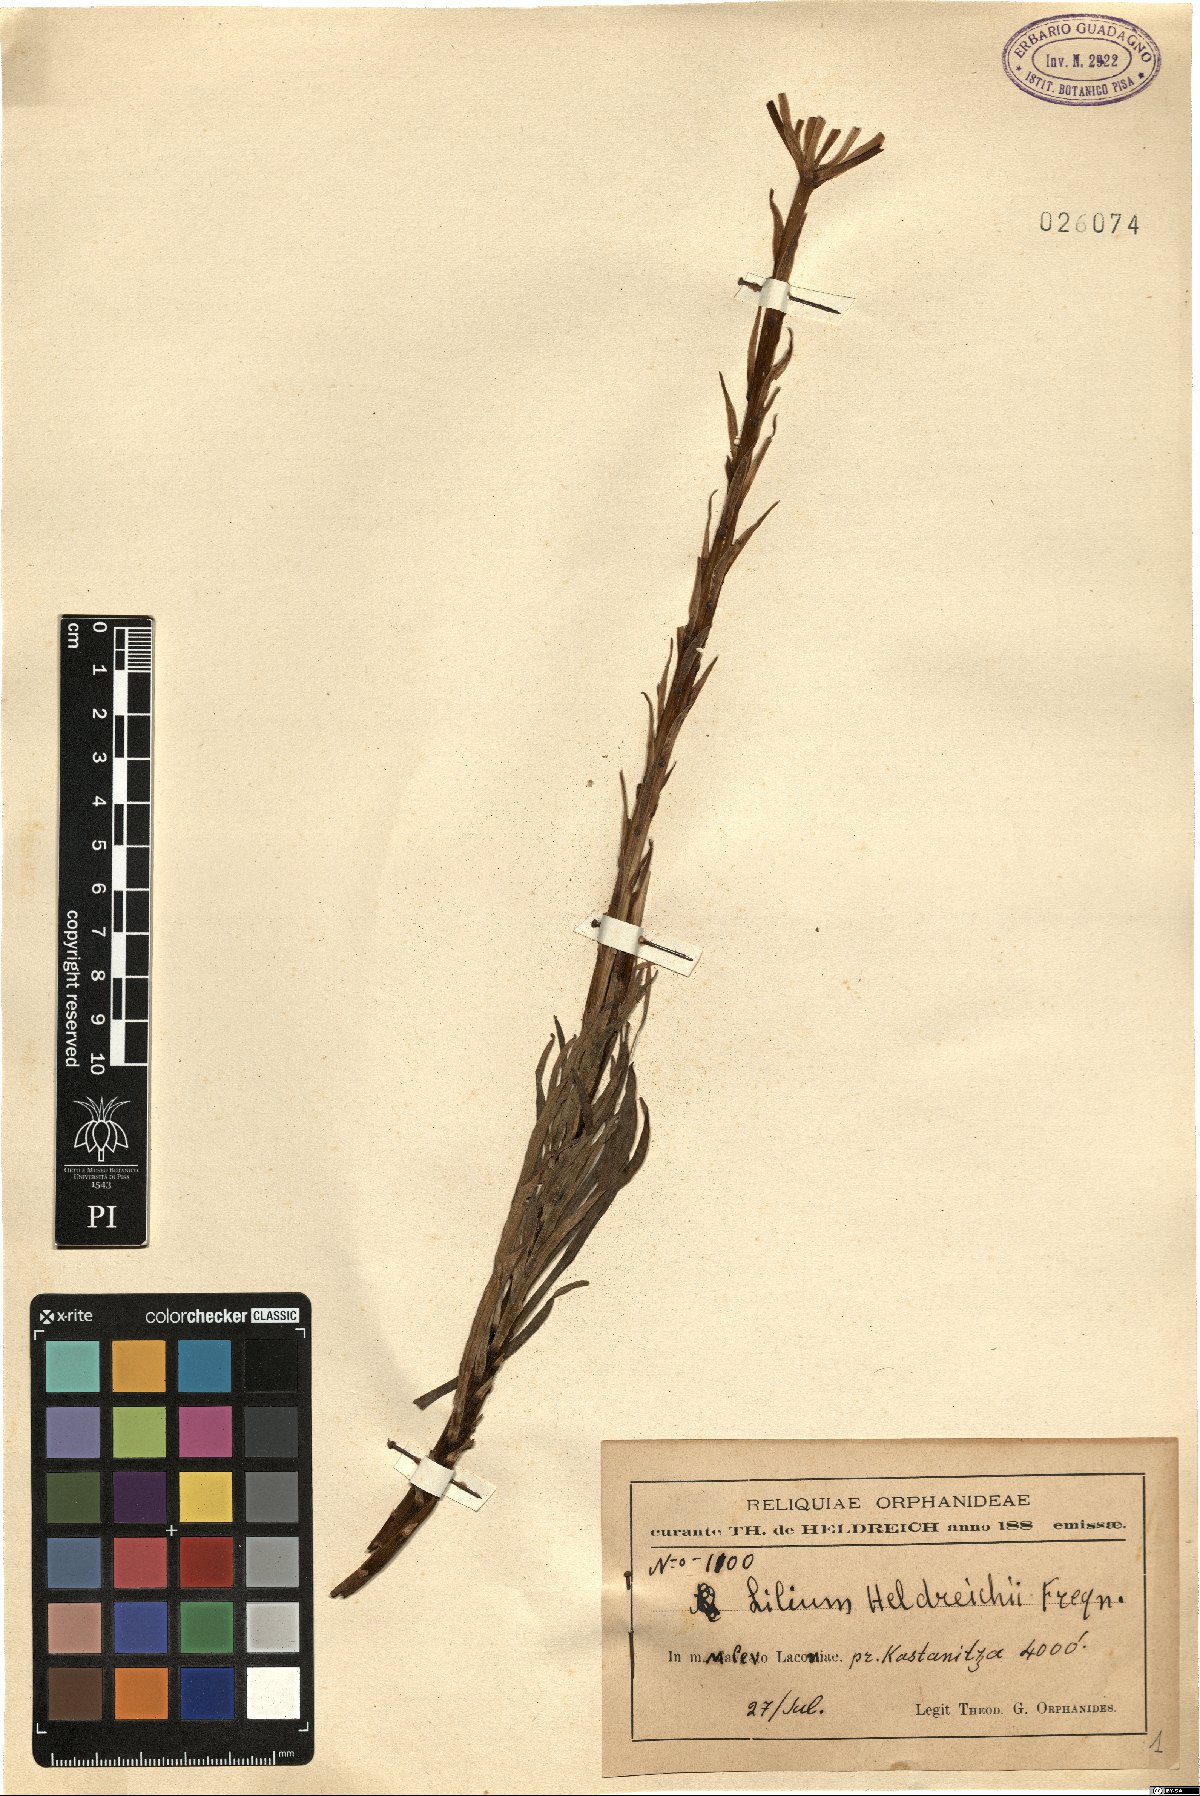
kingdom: Plantae
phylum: Tracheophyta
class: Liliopsida
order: Liliales
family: Liliaceae
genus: Lilium
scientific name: Lilium chalcedonicum
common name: Red martagon of constantinople
